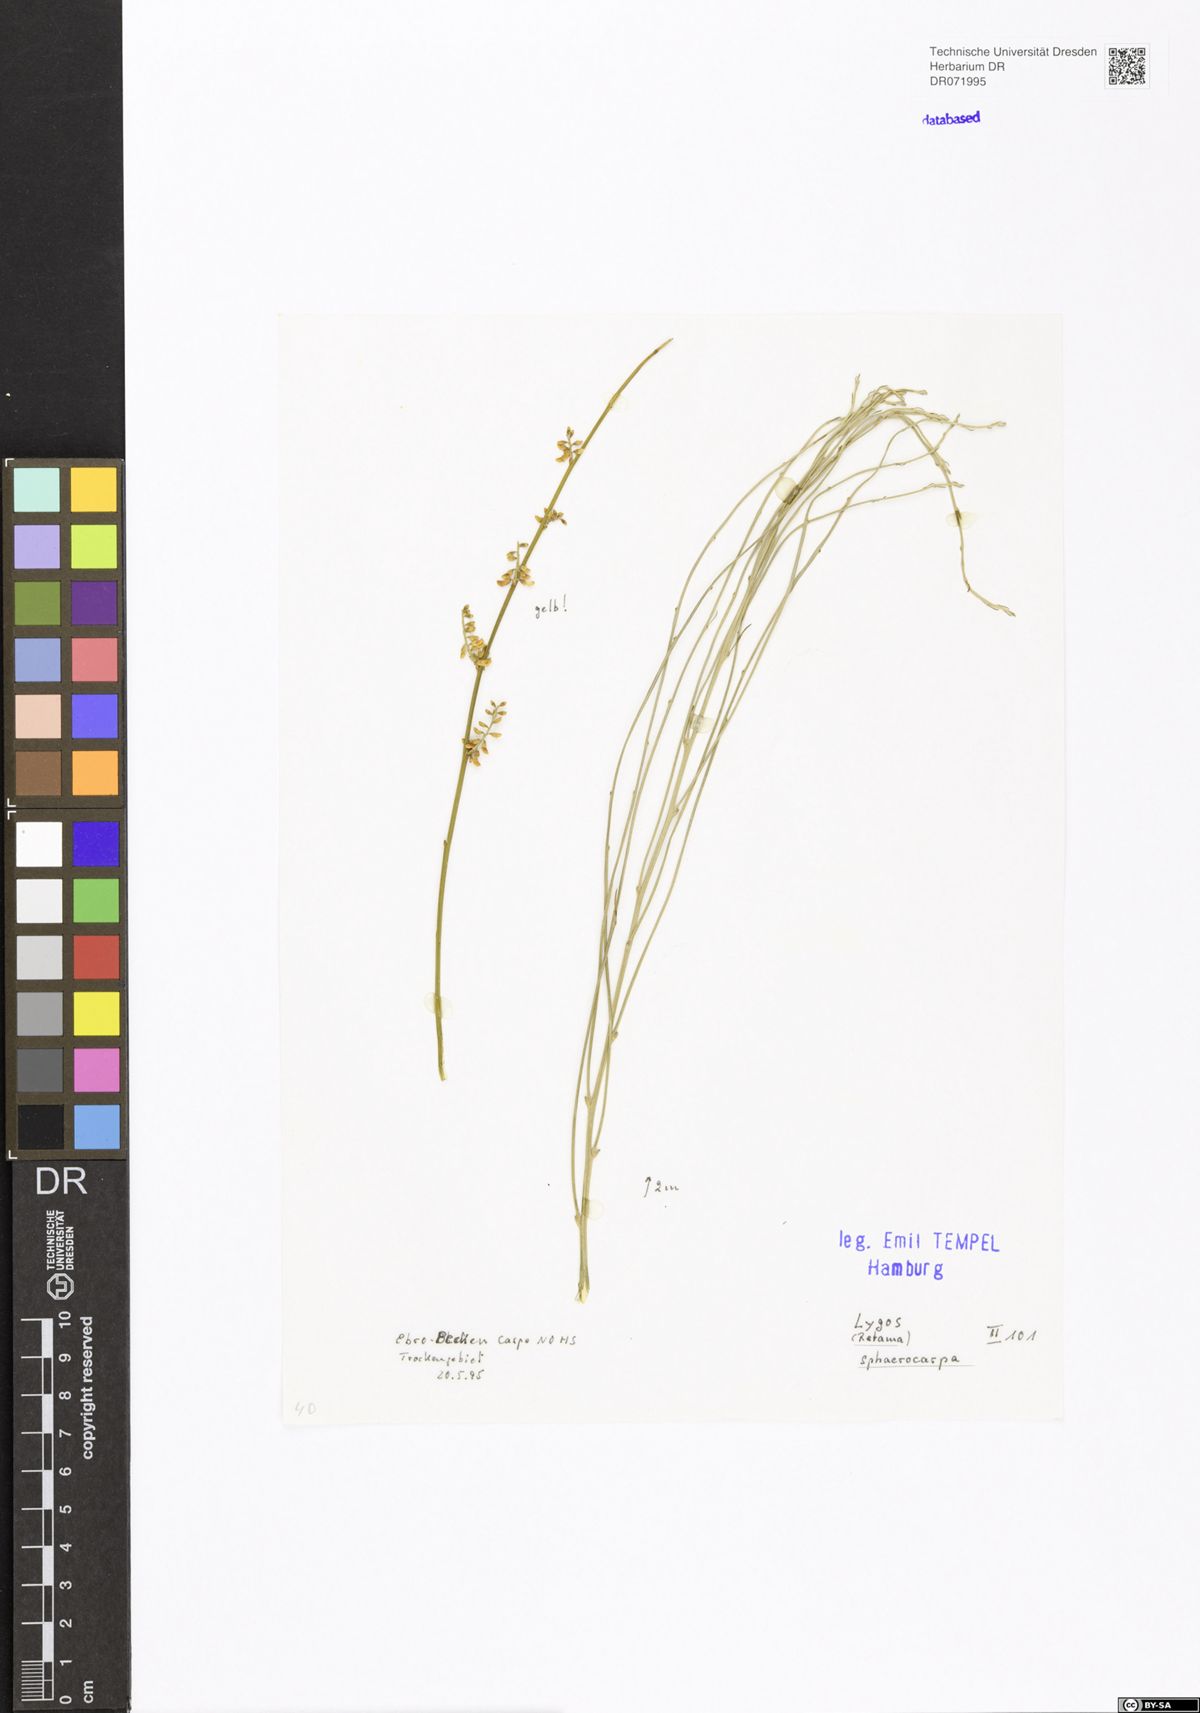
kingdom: Plantae
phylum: Tracheophyta
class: Magnoliopsida
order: Fabales
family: Fabaceae
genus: Retama
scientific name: Retama sphaerocarpa
